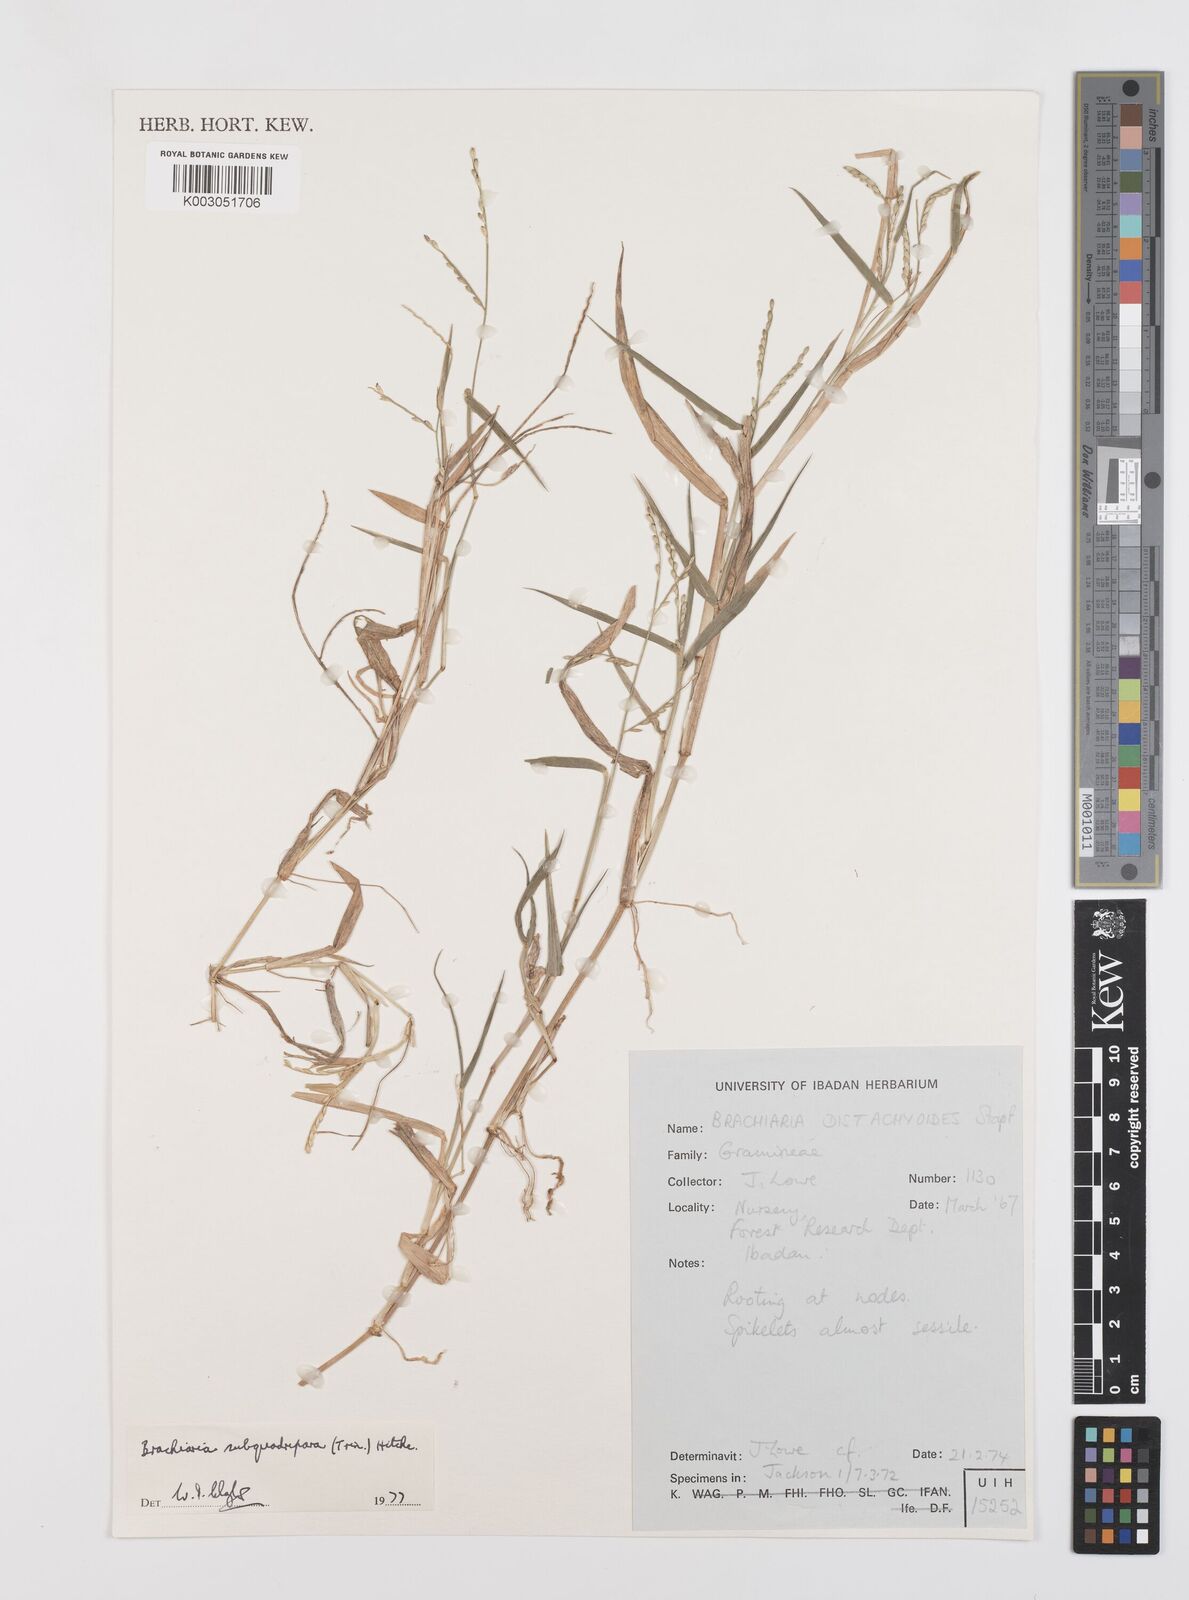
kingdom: Plantae
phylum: Tracheophyta
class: Liliopsida
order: Poales
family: Poaceae
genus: Urochloa
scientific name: Urochloa subquadripara
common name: Armgrass millet
